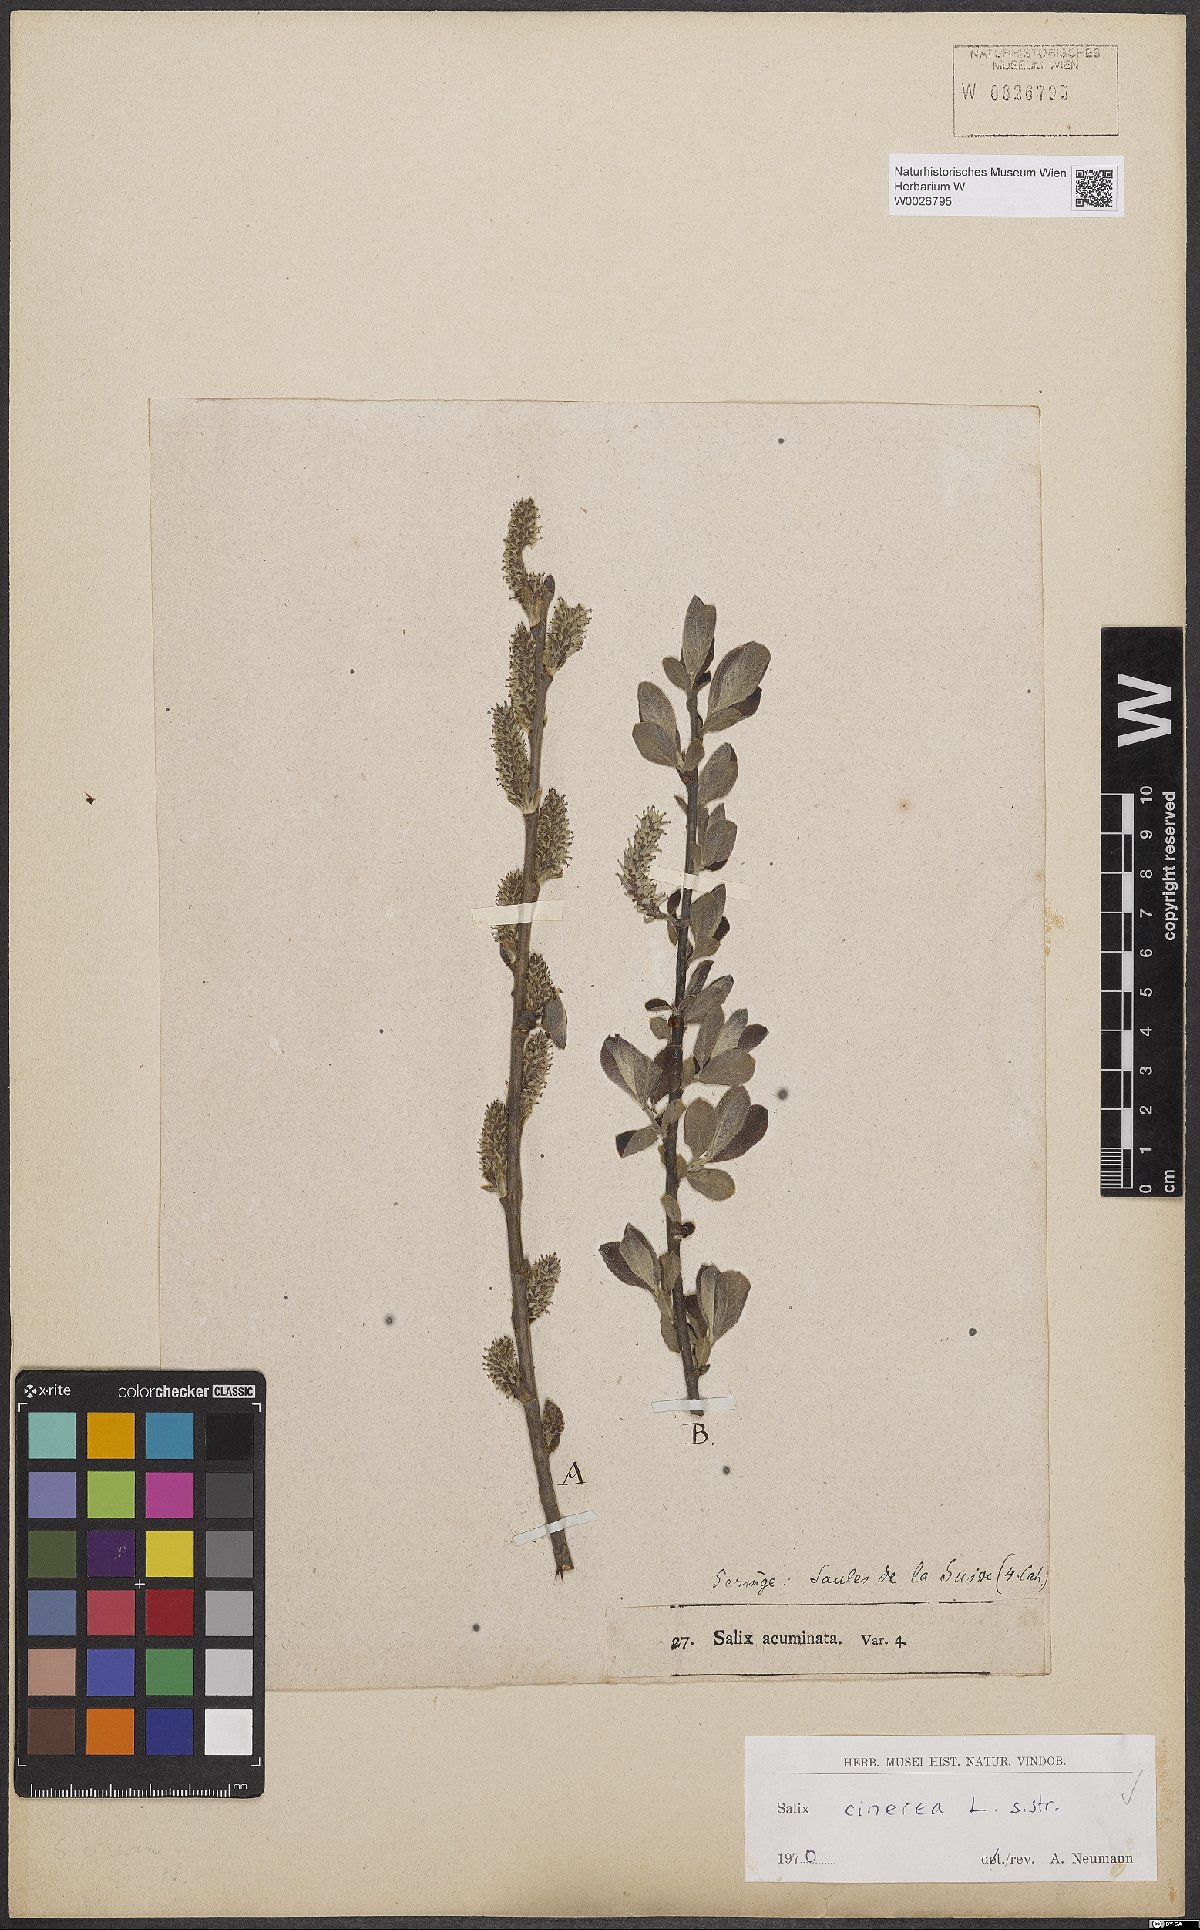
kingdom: Plantae
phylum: Tracheophyta
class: Magnoliopsida
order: Malpighiales
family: Salicaceae
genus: Salix
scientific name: Salix cinerea
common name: Common sallow
